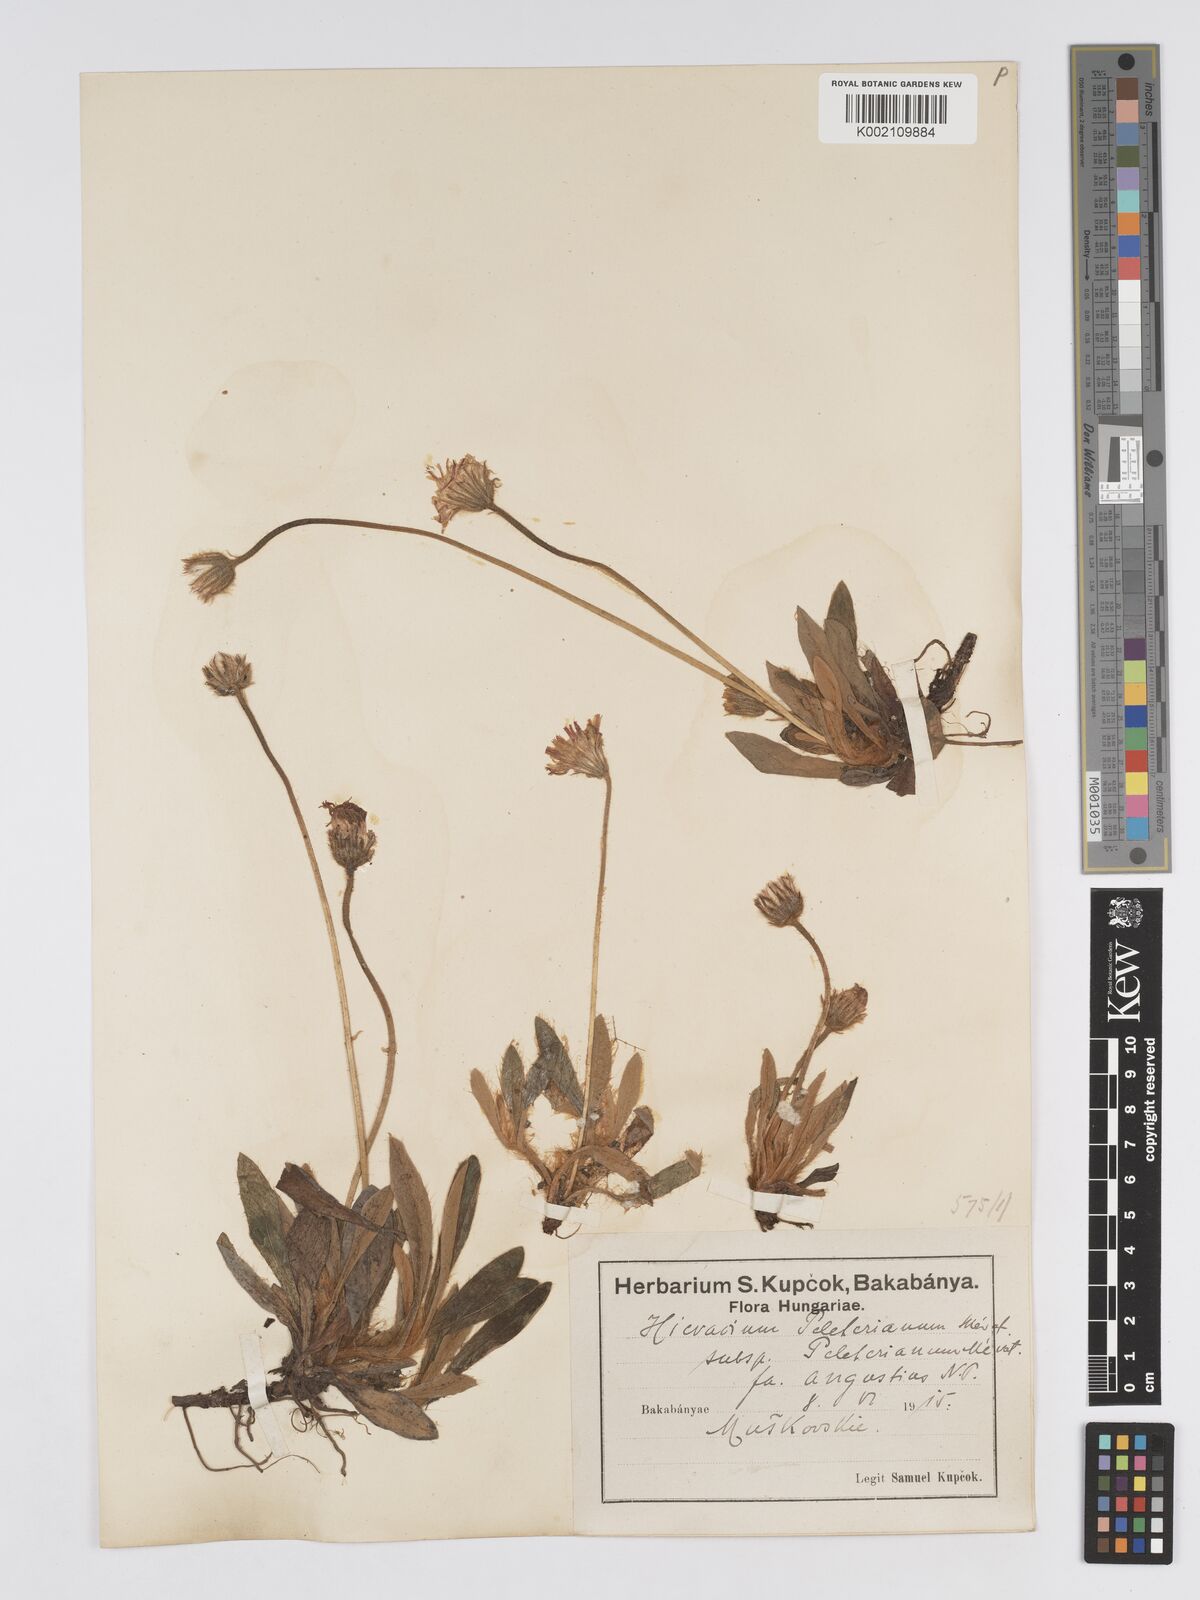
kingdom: Plantae
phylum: Tracheophyta
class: Magnoliopsida
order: Asterales
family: Asteraceae
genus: Pilosella
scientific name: Pilosella hoppeana
